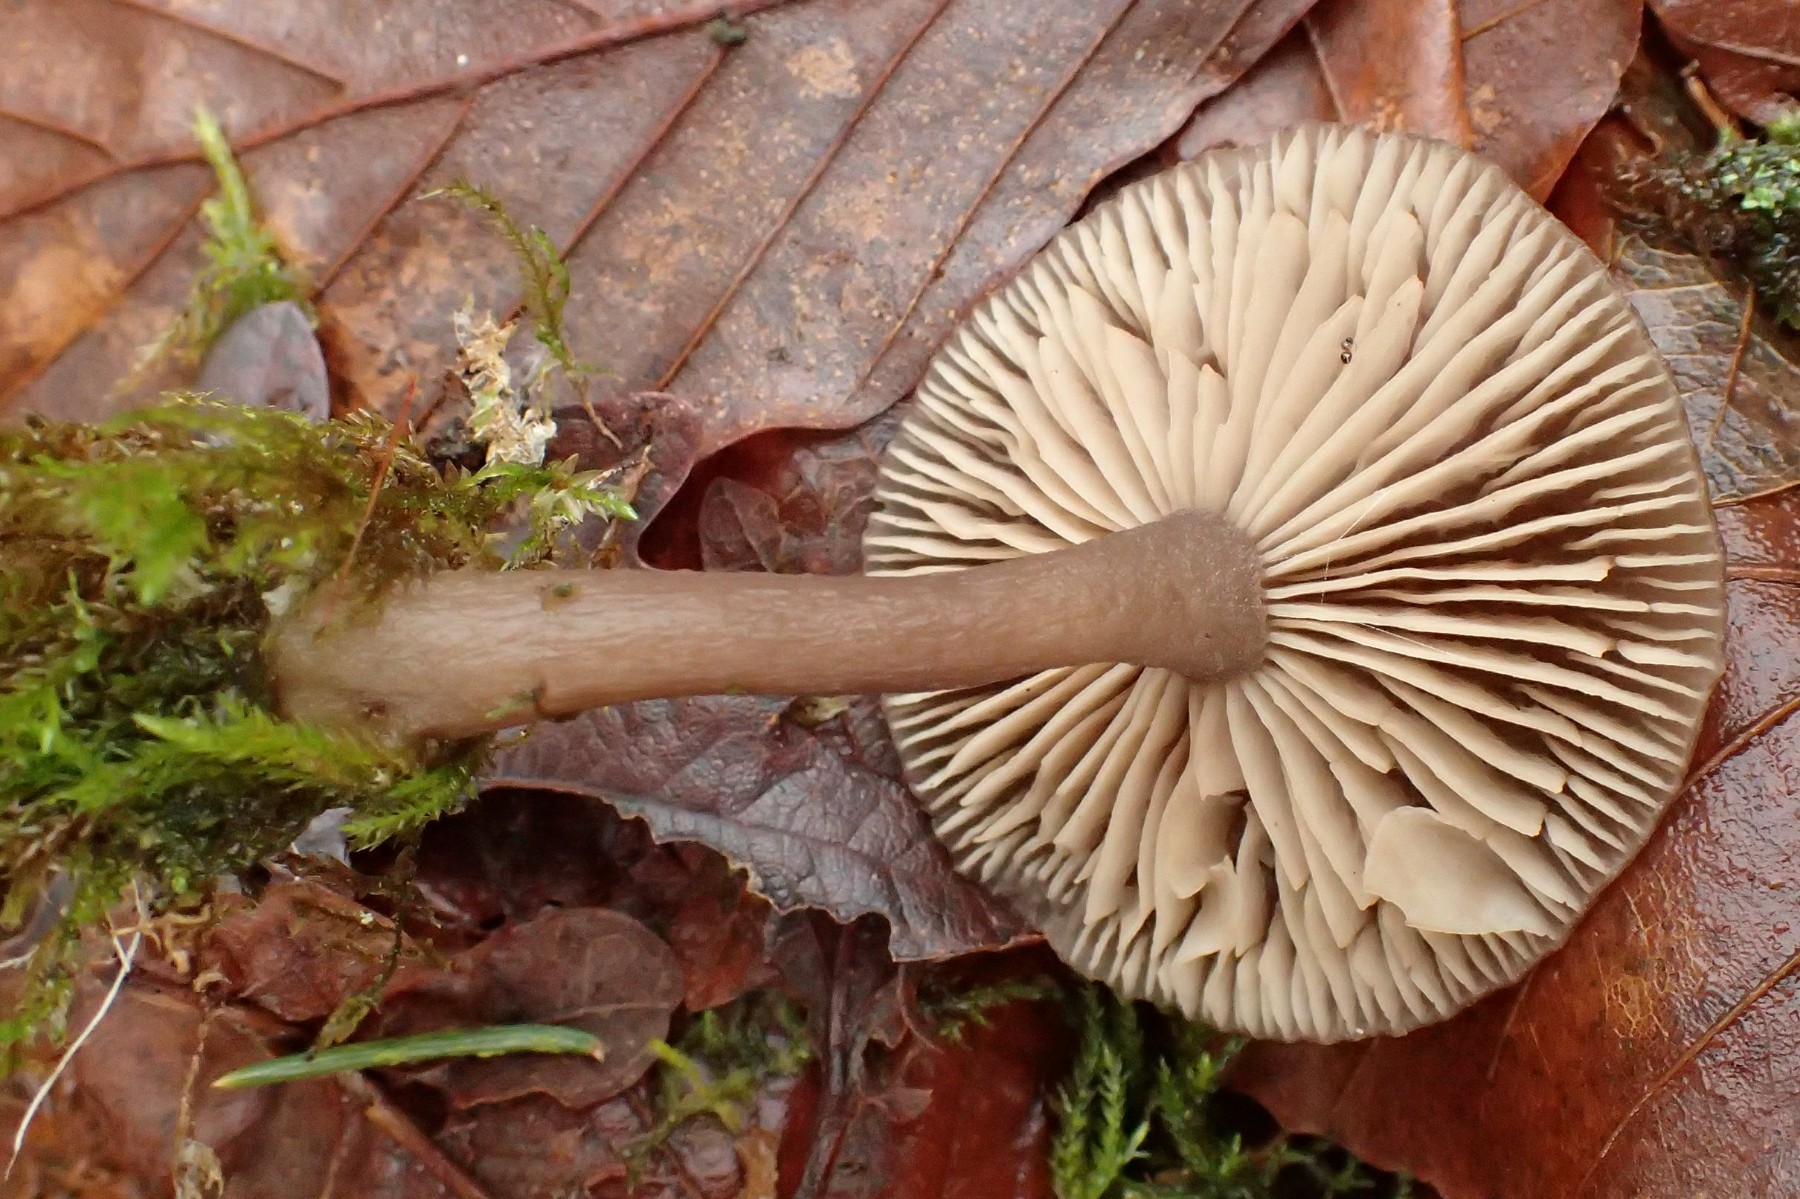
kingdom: Fungi
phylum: Basidiomycota
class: Agaricomycetes
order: Agaricales
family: Pseudoclitocybaceae
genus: Pseudoclitocybe
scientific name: Pseudoclitocybe cyathiformis
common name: almindelig bægertragthat
